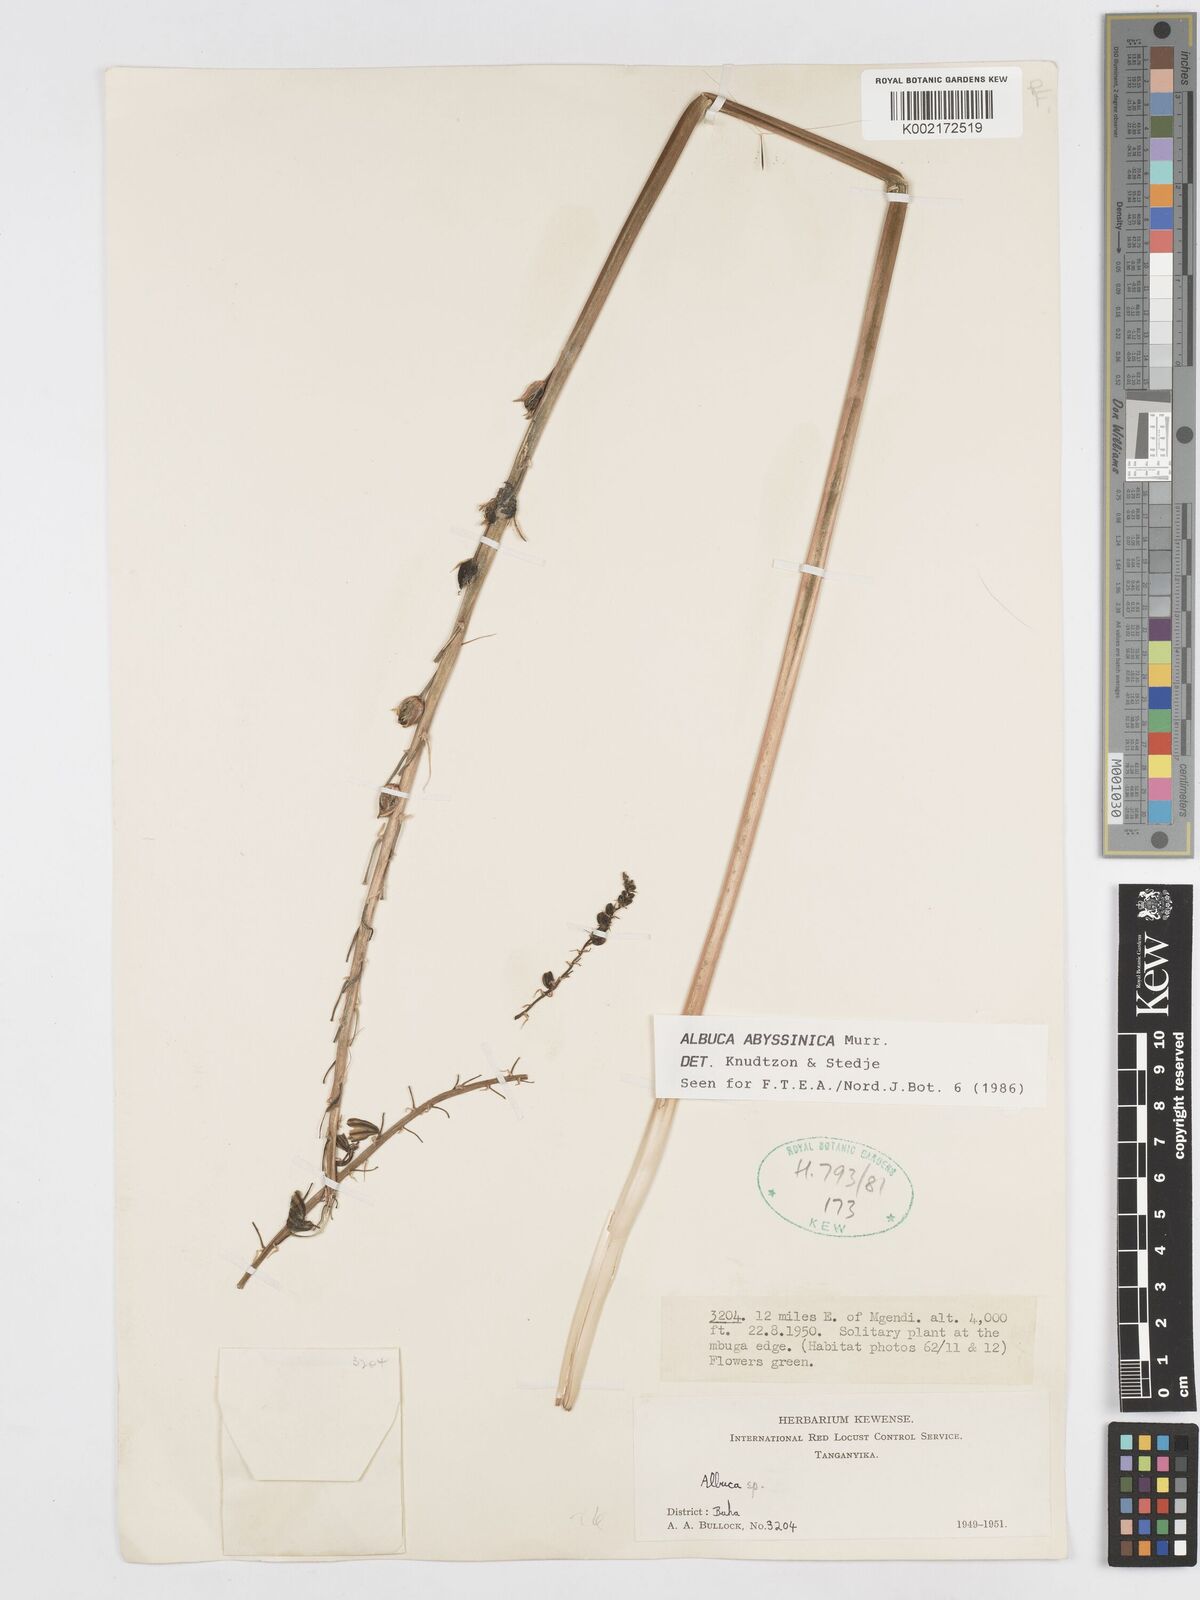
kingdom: Plantae
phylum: Tracheophyta
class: Liliopsida
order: Asparagales
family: Asparagaceae
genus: Albuca
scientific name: Albuca abyssinica
